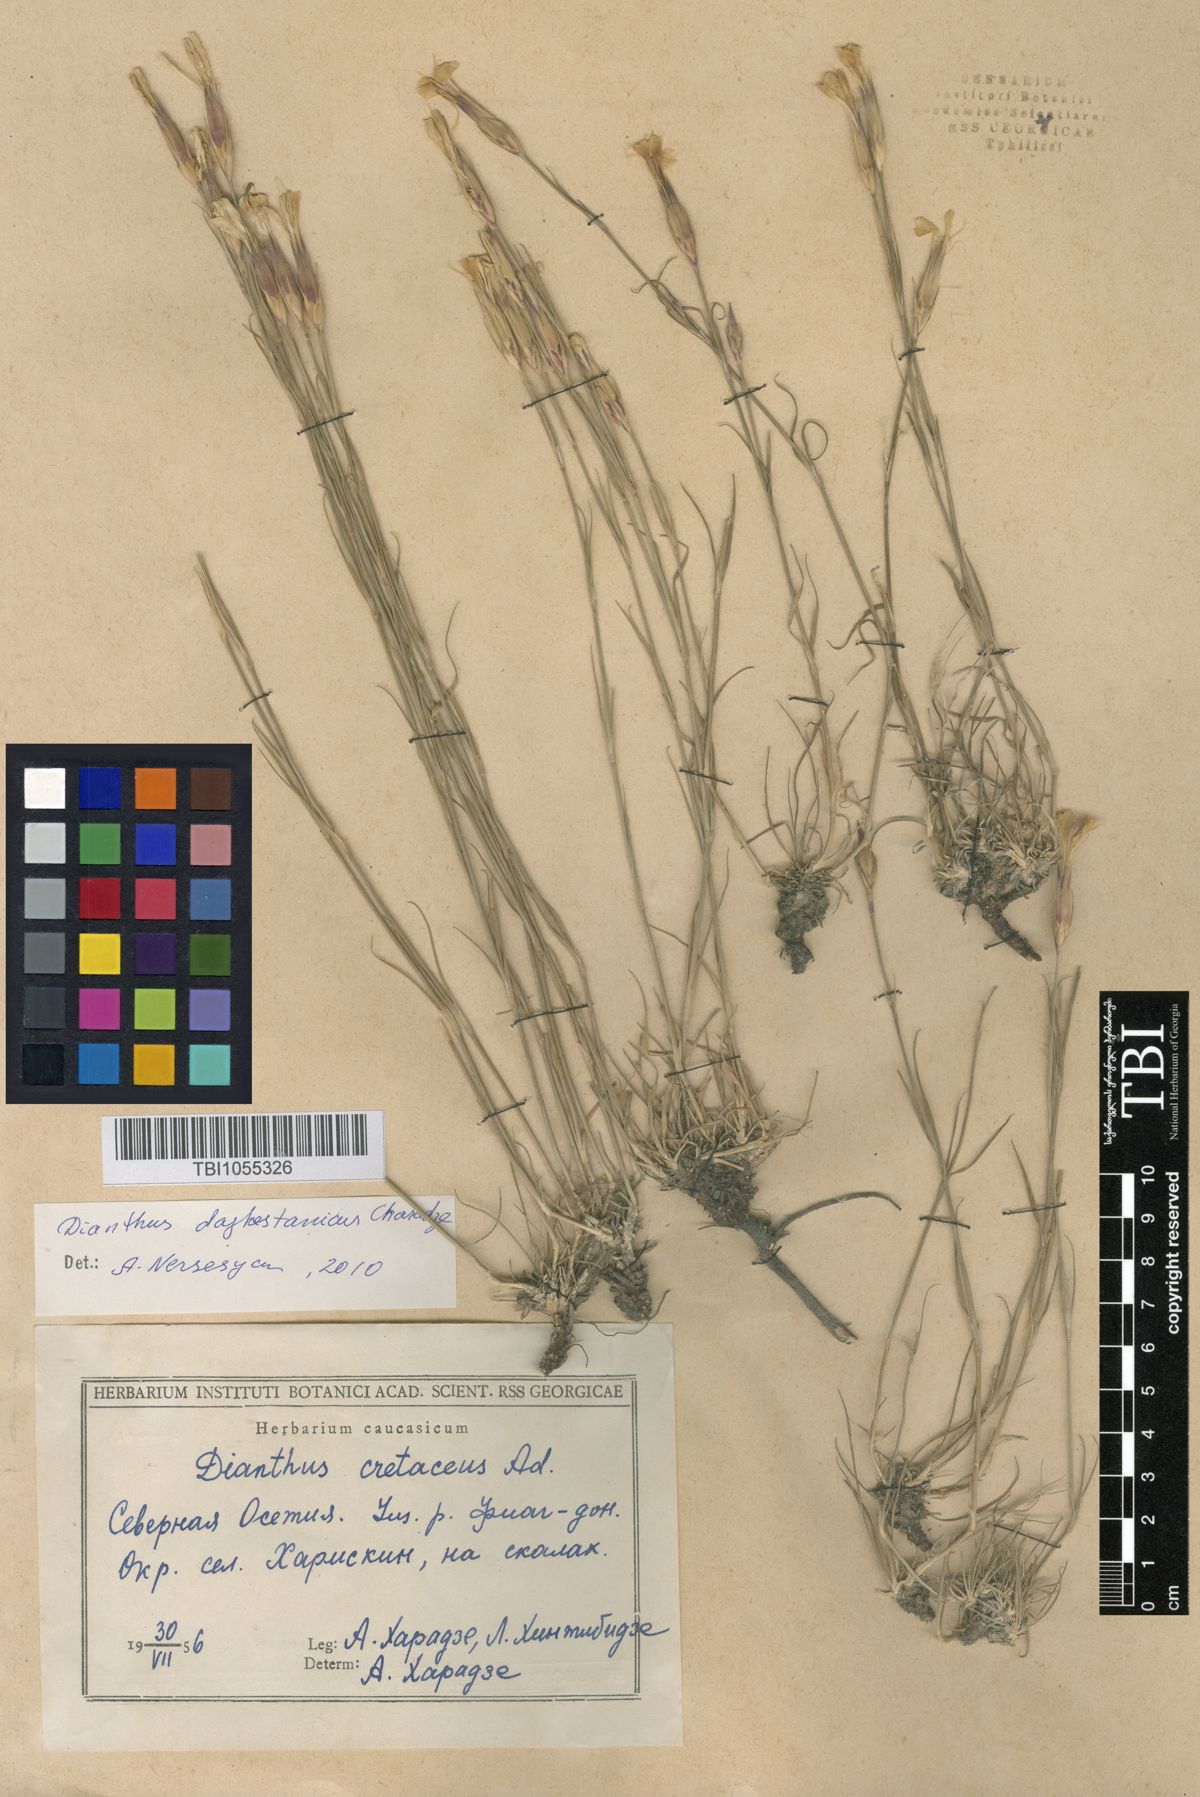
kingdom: Plantae
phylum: Tracheophyta
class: Magnoliopsida
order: Caryophyllales
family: Caryophyllaceae
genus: Dianthus
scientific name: Dianthus cretaceus
